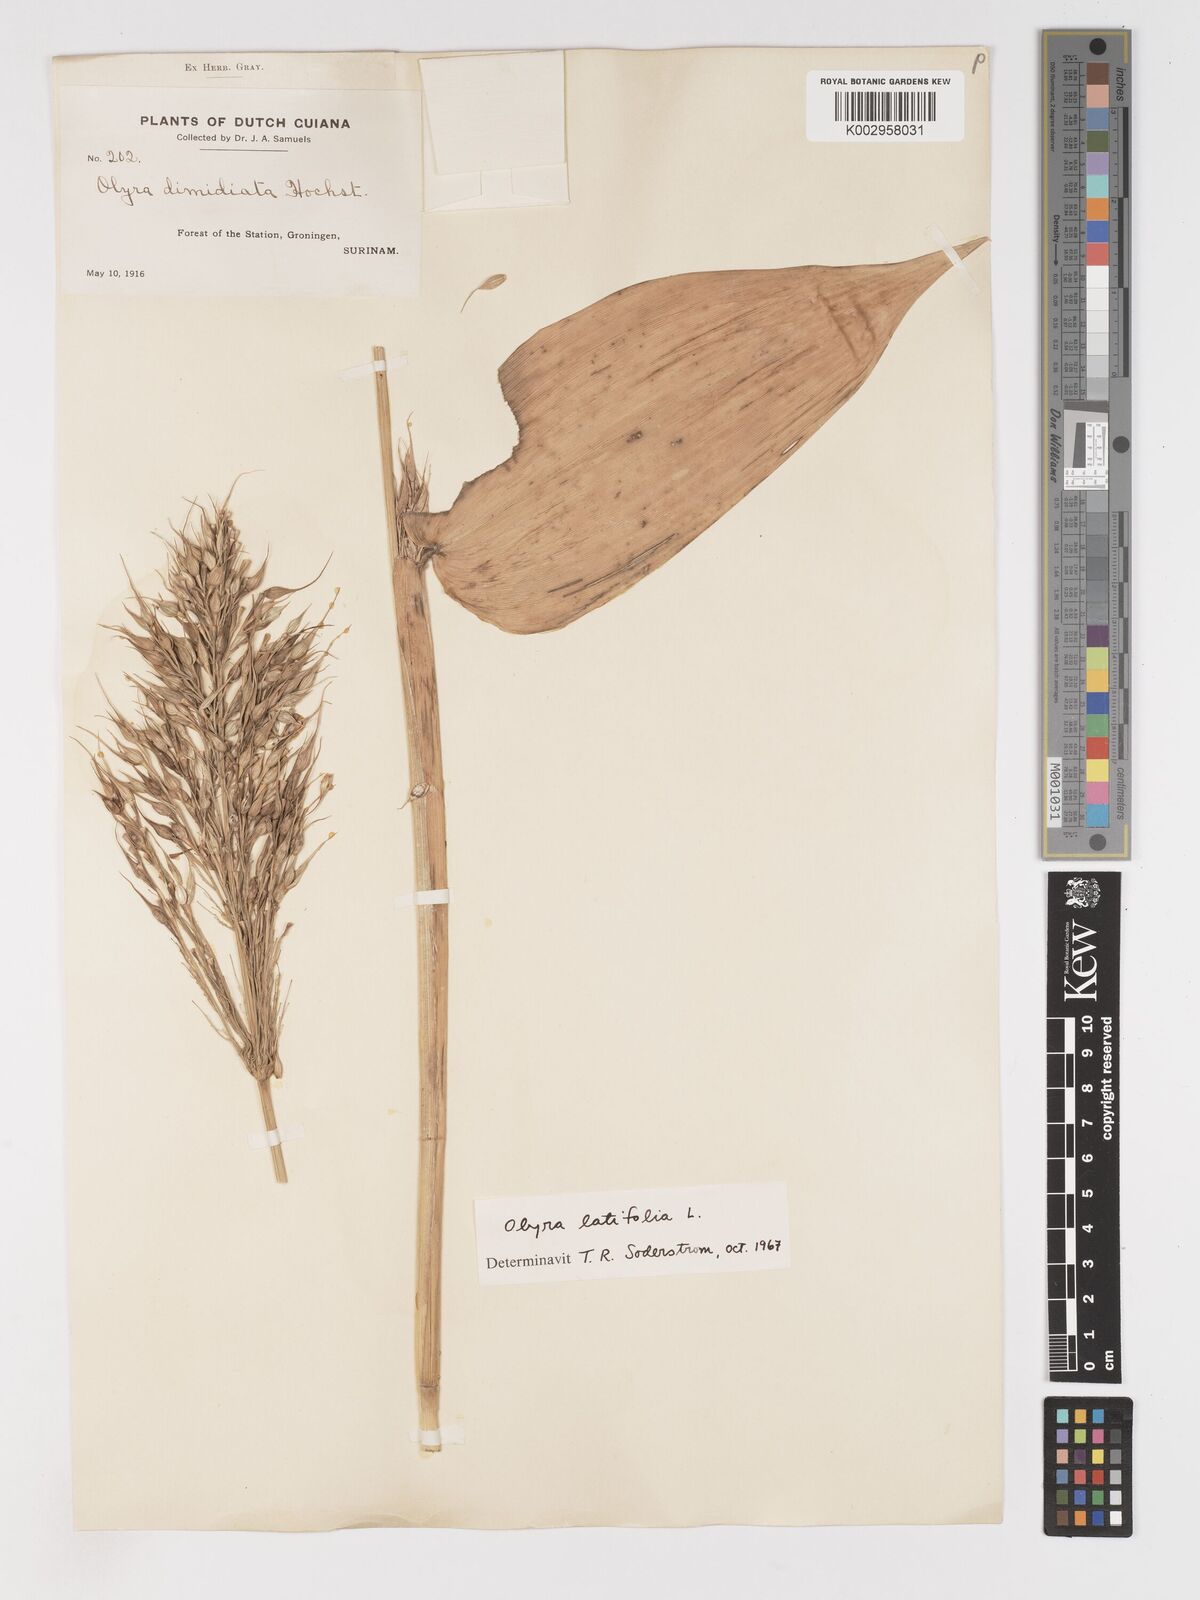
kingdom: Plantae
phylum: Tracheophyta
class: Liliopsida
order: Poales
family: Poaceae
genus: Olyra
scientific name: Olyra latifolia
